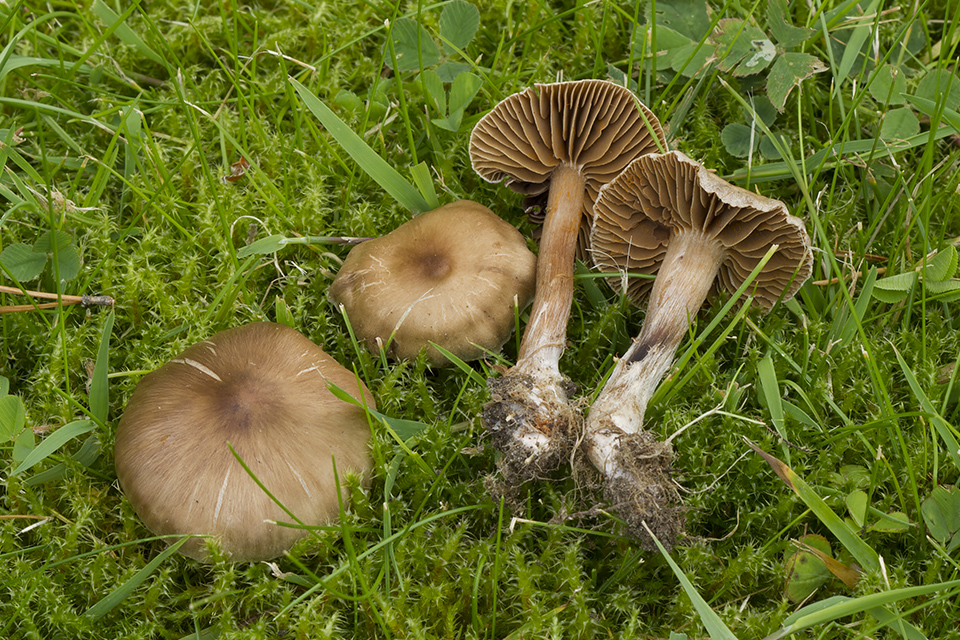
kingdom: Fungi
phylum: Basidiomycota
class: Agaricomycetes
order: Agaricales
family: Cortinariaceae
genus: Cortinarius
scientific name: Cortinarius alboadustus
